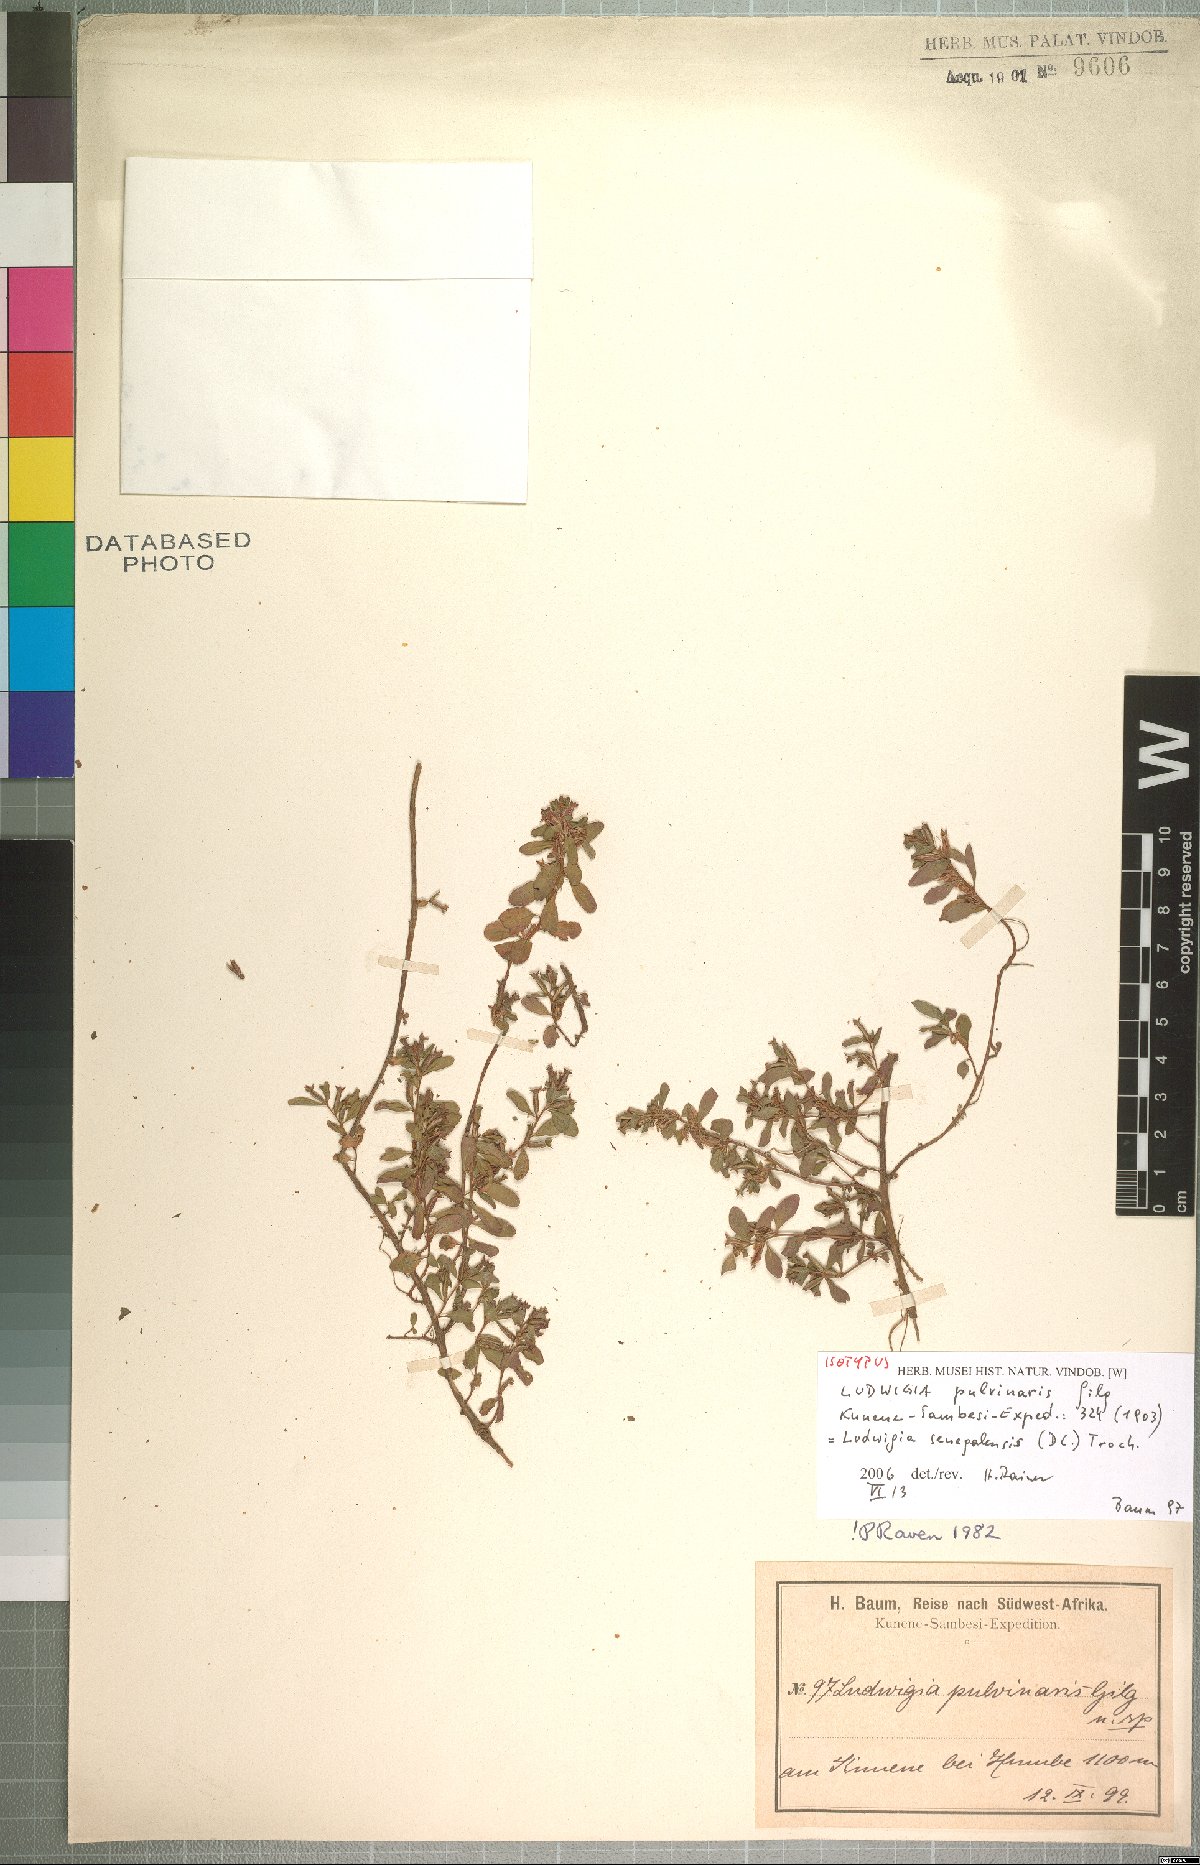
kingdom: Plantae
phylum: Tracheophyta
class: Magnoliopsida
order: Myrtales
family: Onagraceae
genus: Ludwigia
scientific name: Ludwigia senegalensis
